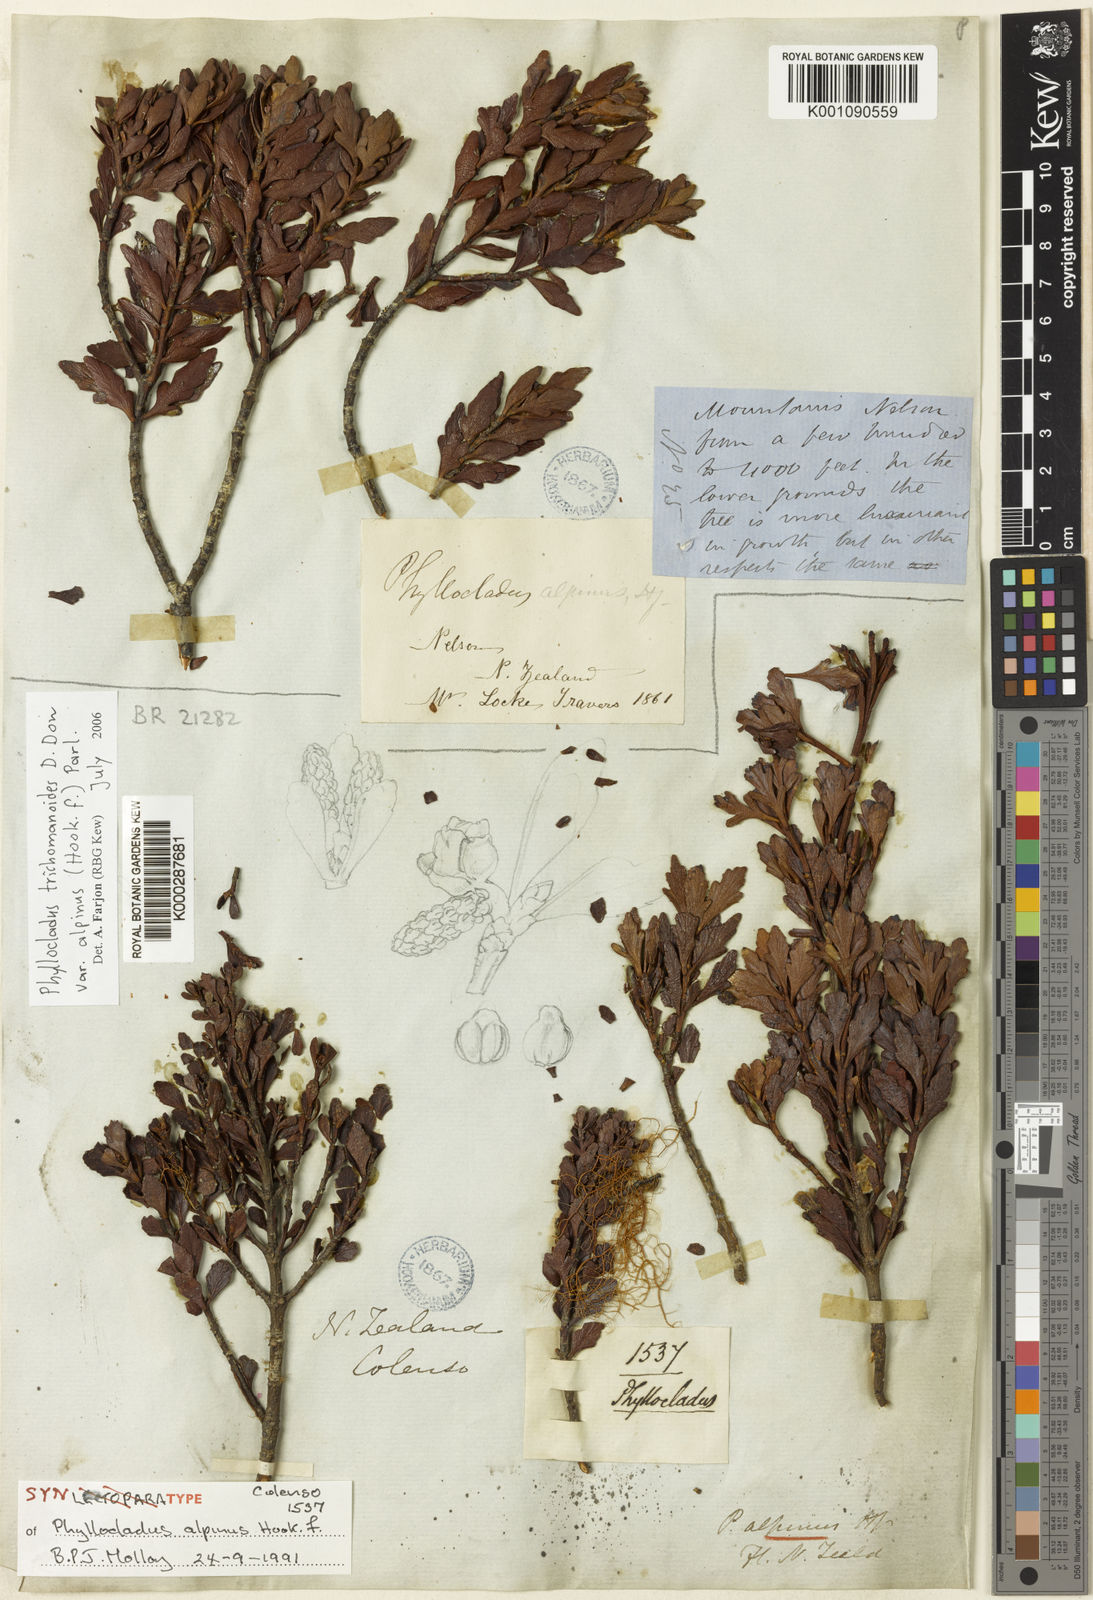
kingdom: Plantae
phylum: Tracheophyta
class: Pinopsida
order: Pinales
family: Phyllocladaceae
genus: Phyllocladus
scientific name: Phyllocladus trichomanoides
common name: Celery pine
